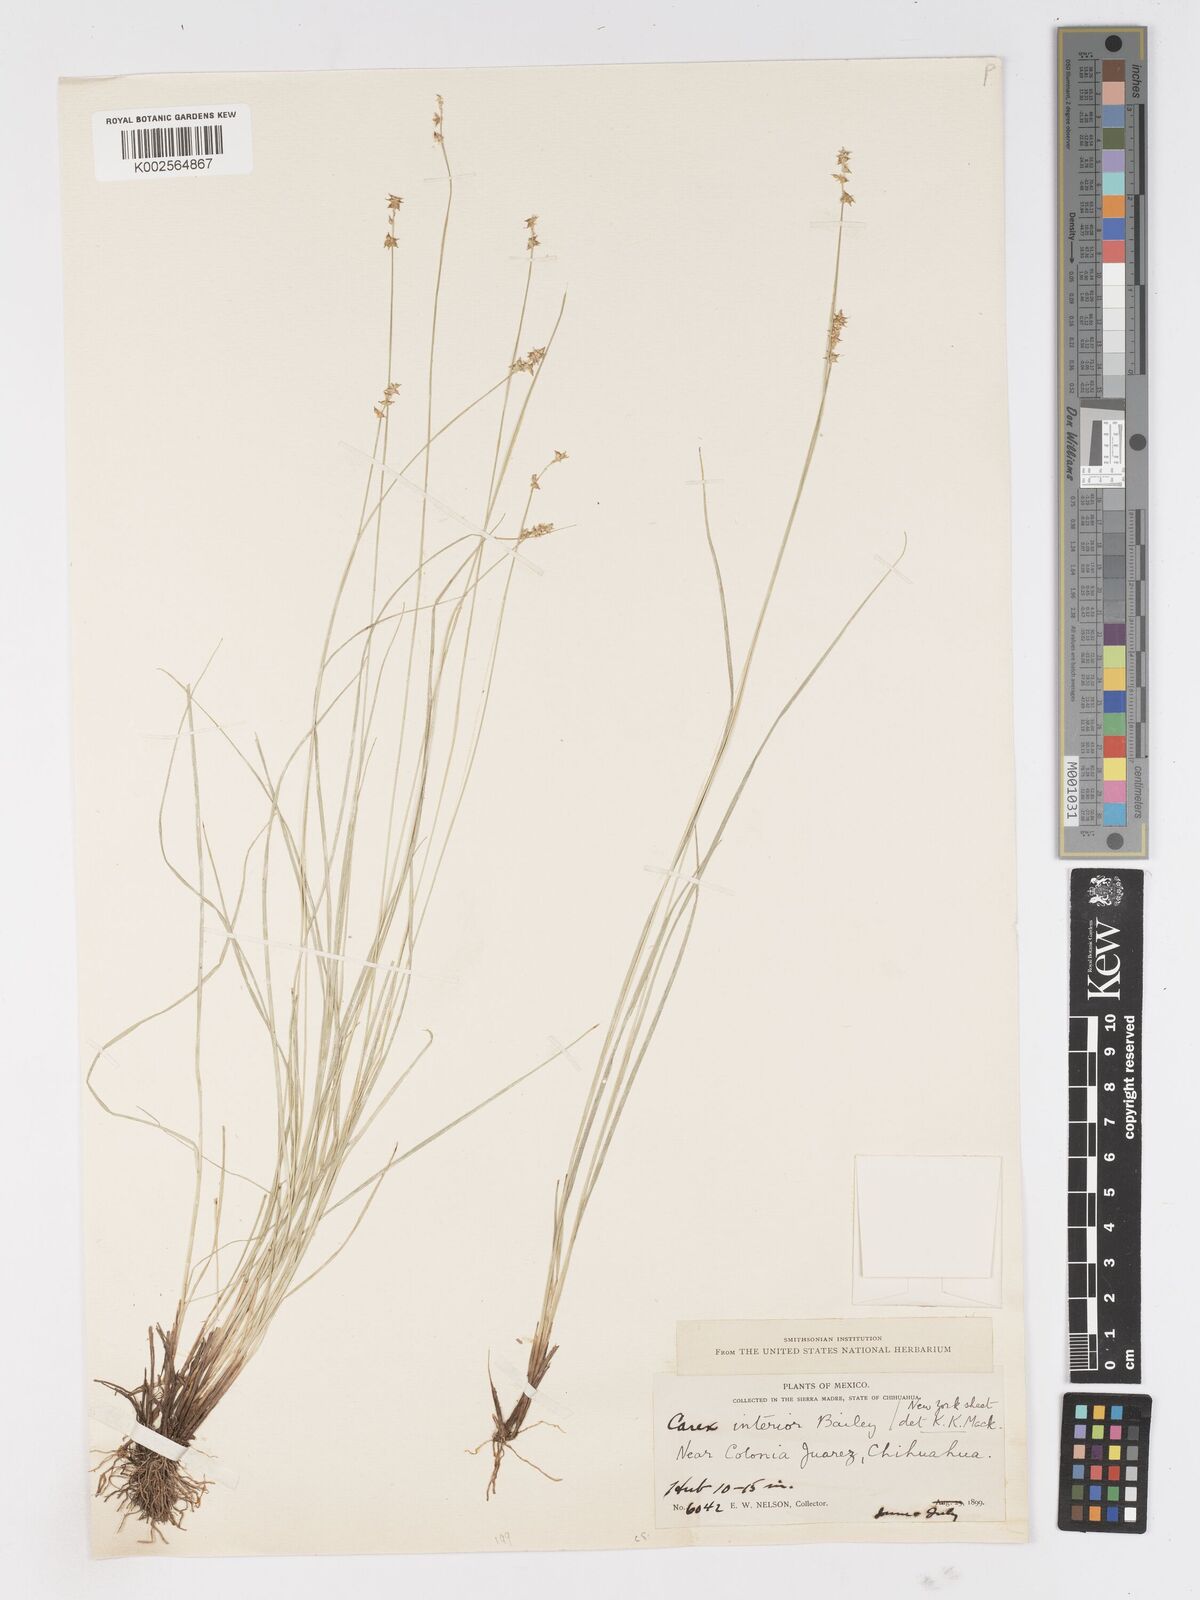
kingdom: Plantae
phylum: Tracheophyta
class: Liliopsida
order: Poales
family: Cyperaceae
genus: Carex
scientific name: Carex interior
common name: Inland sedge
